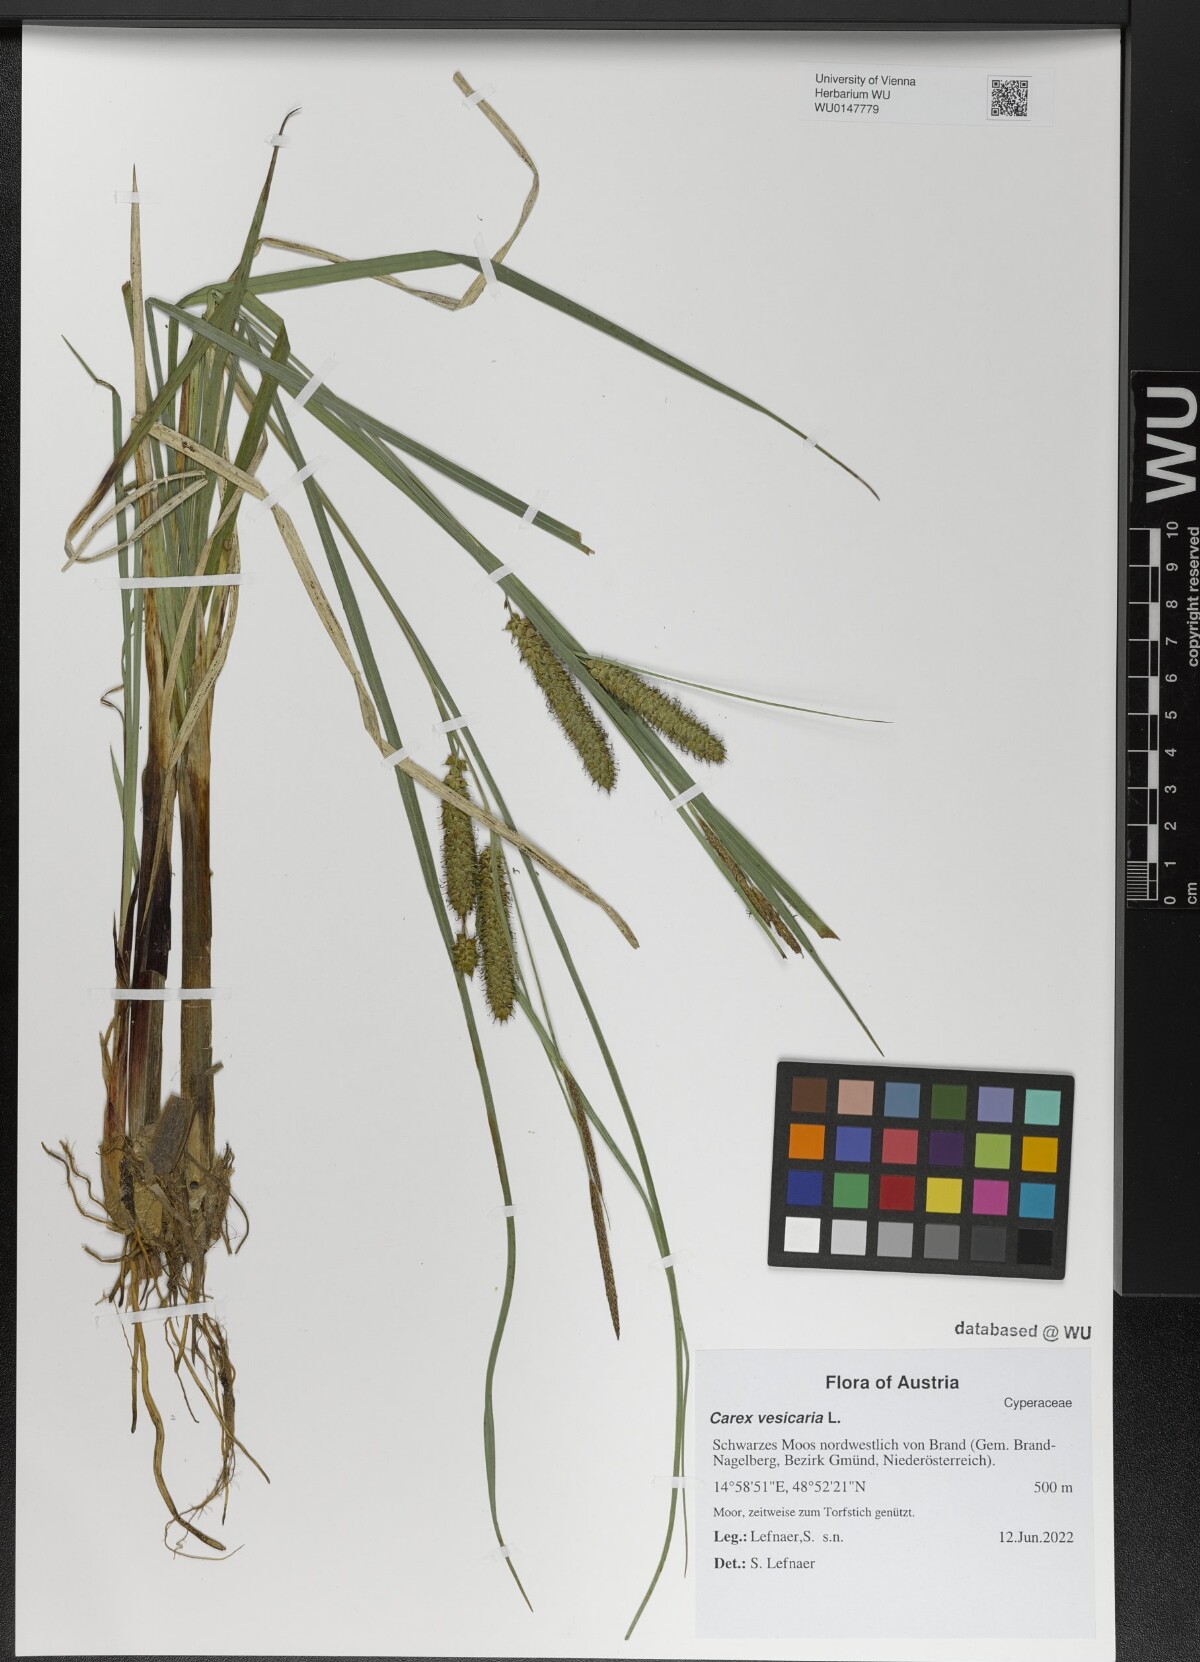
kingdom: Plantae
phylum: Tracheophyta
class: Liliopsida
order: Poales
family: Cyperaceae
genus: Carex
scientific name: Carex vesicaria
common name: Bladder-sedge
